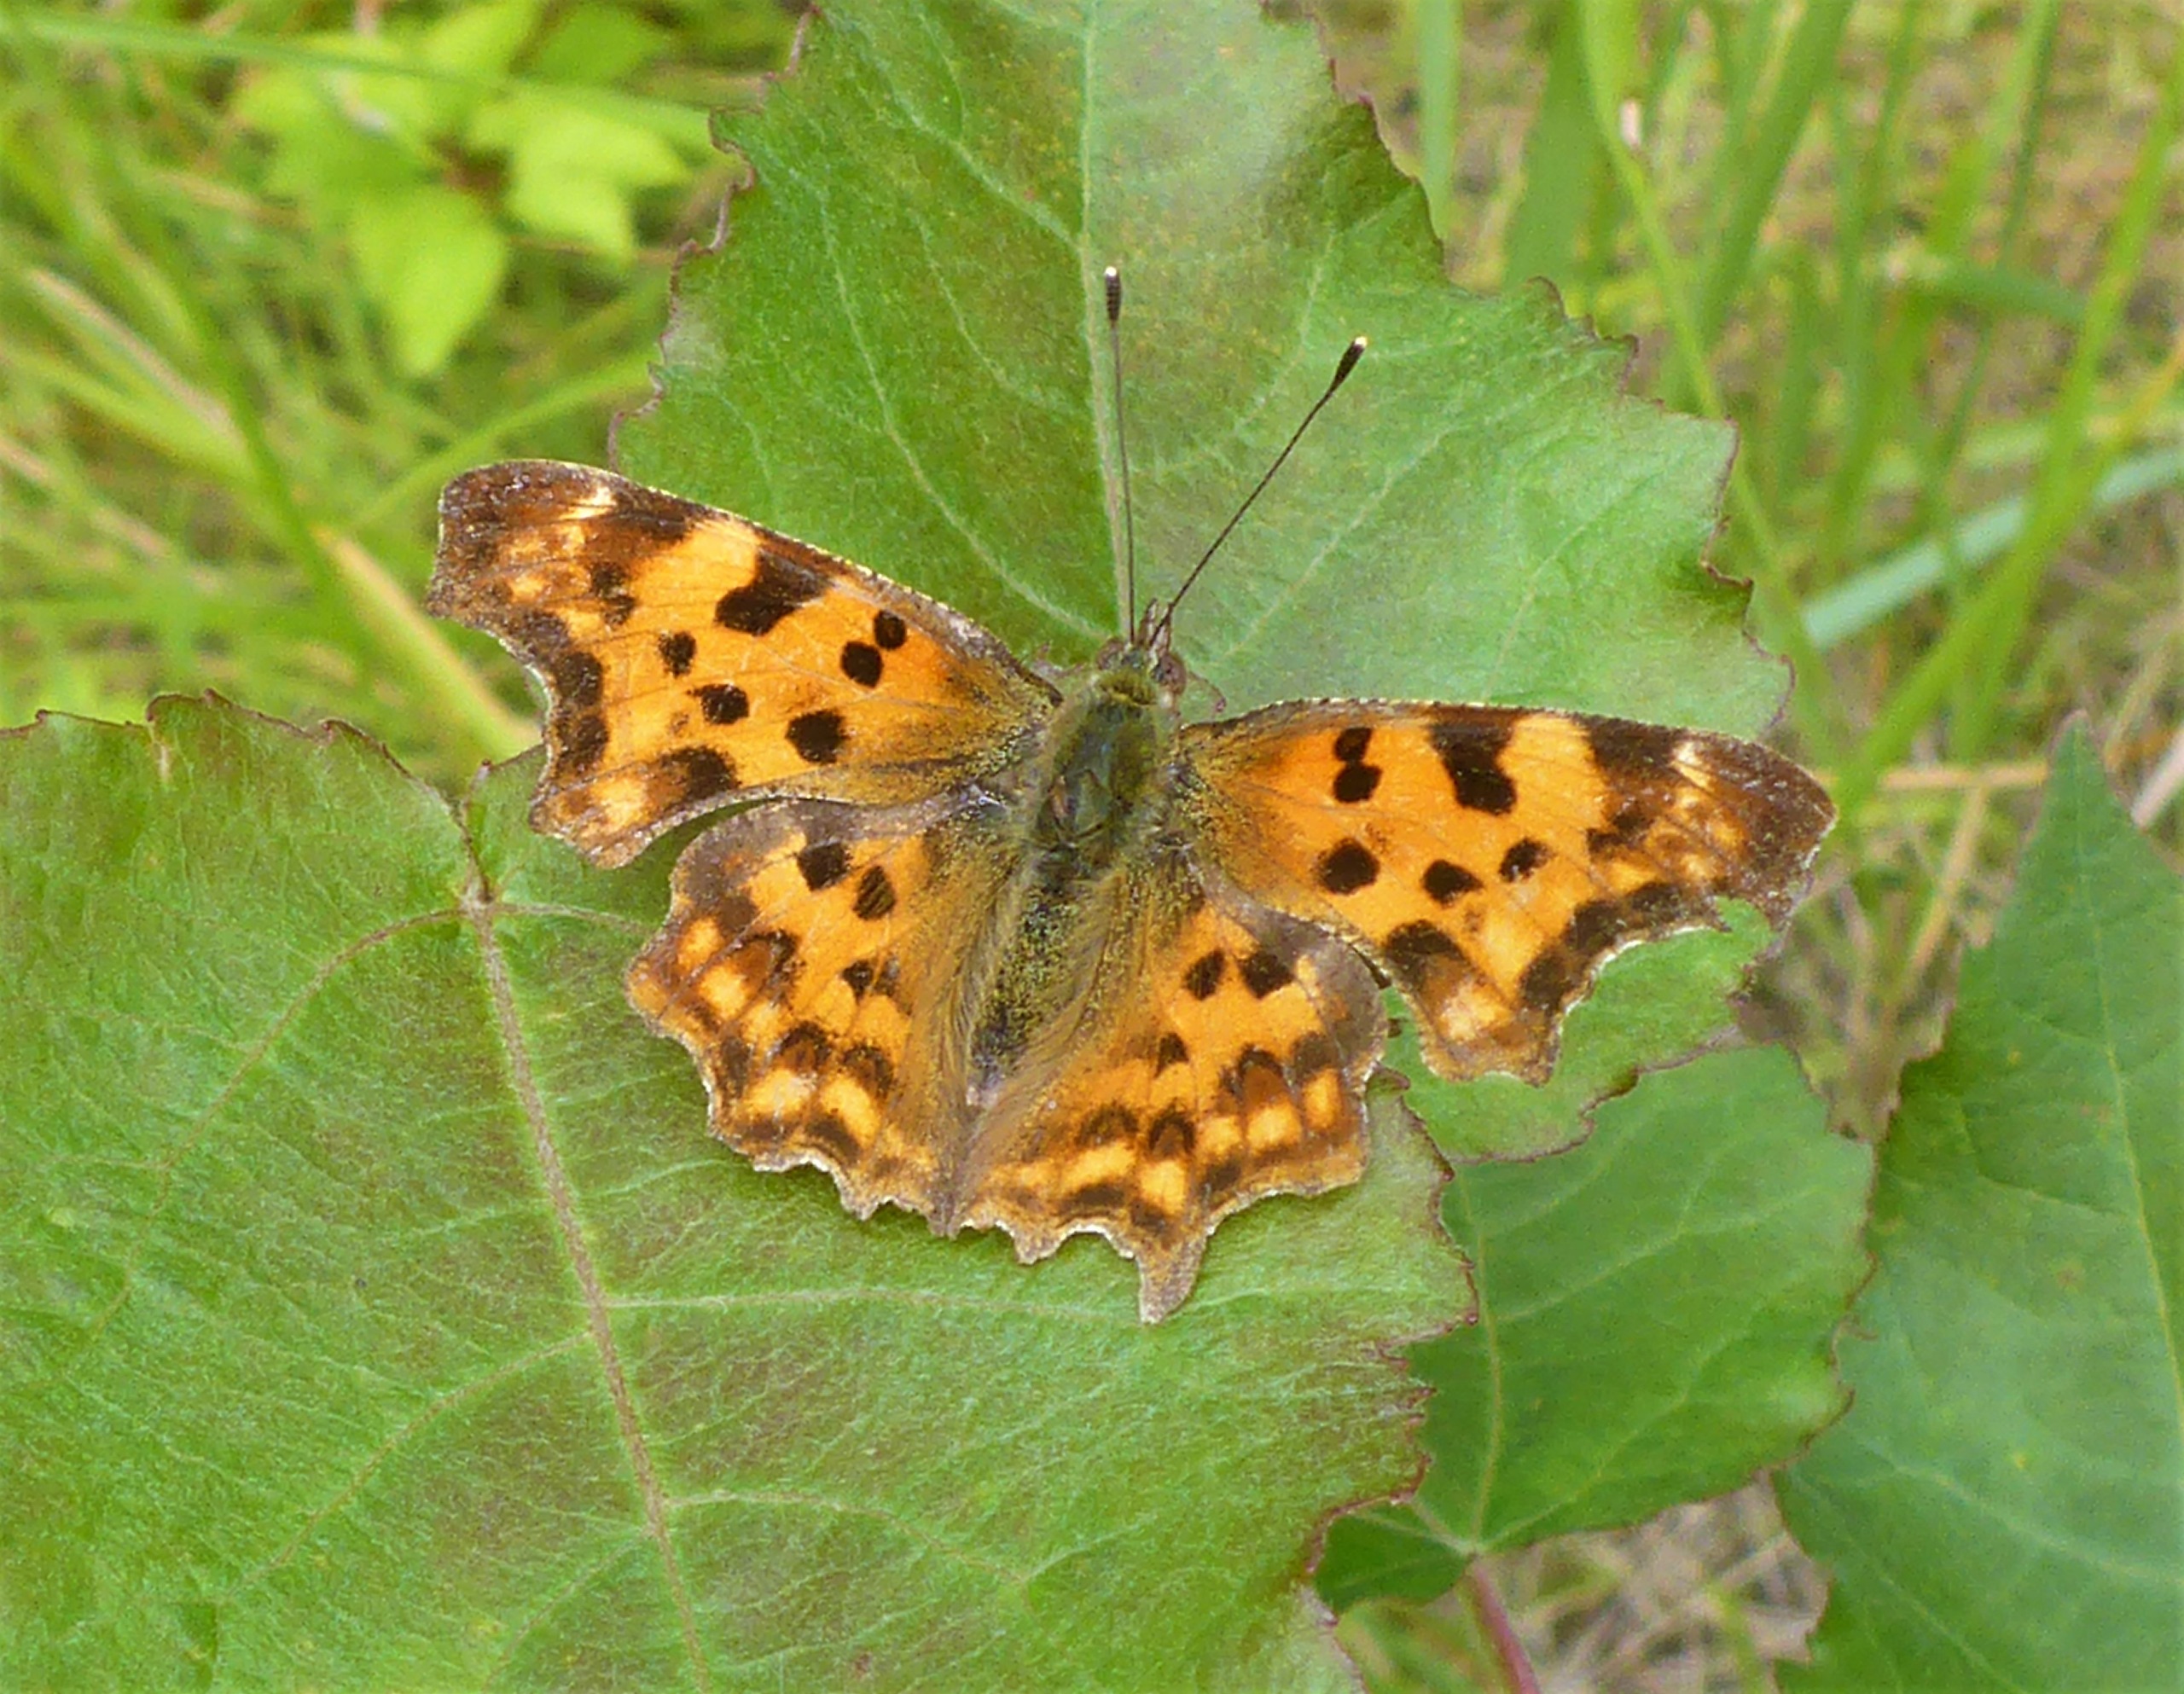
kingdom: Animalia
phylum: Arthropoda
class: Insecta
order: Lepidoptera
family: Nymphalidae
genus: Polygonia
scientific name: Polygonia c-album
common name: Det hvide C
